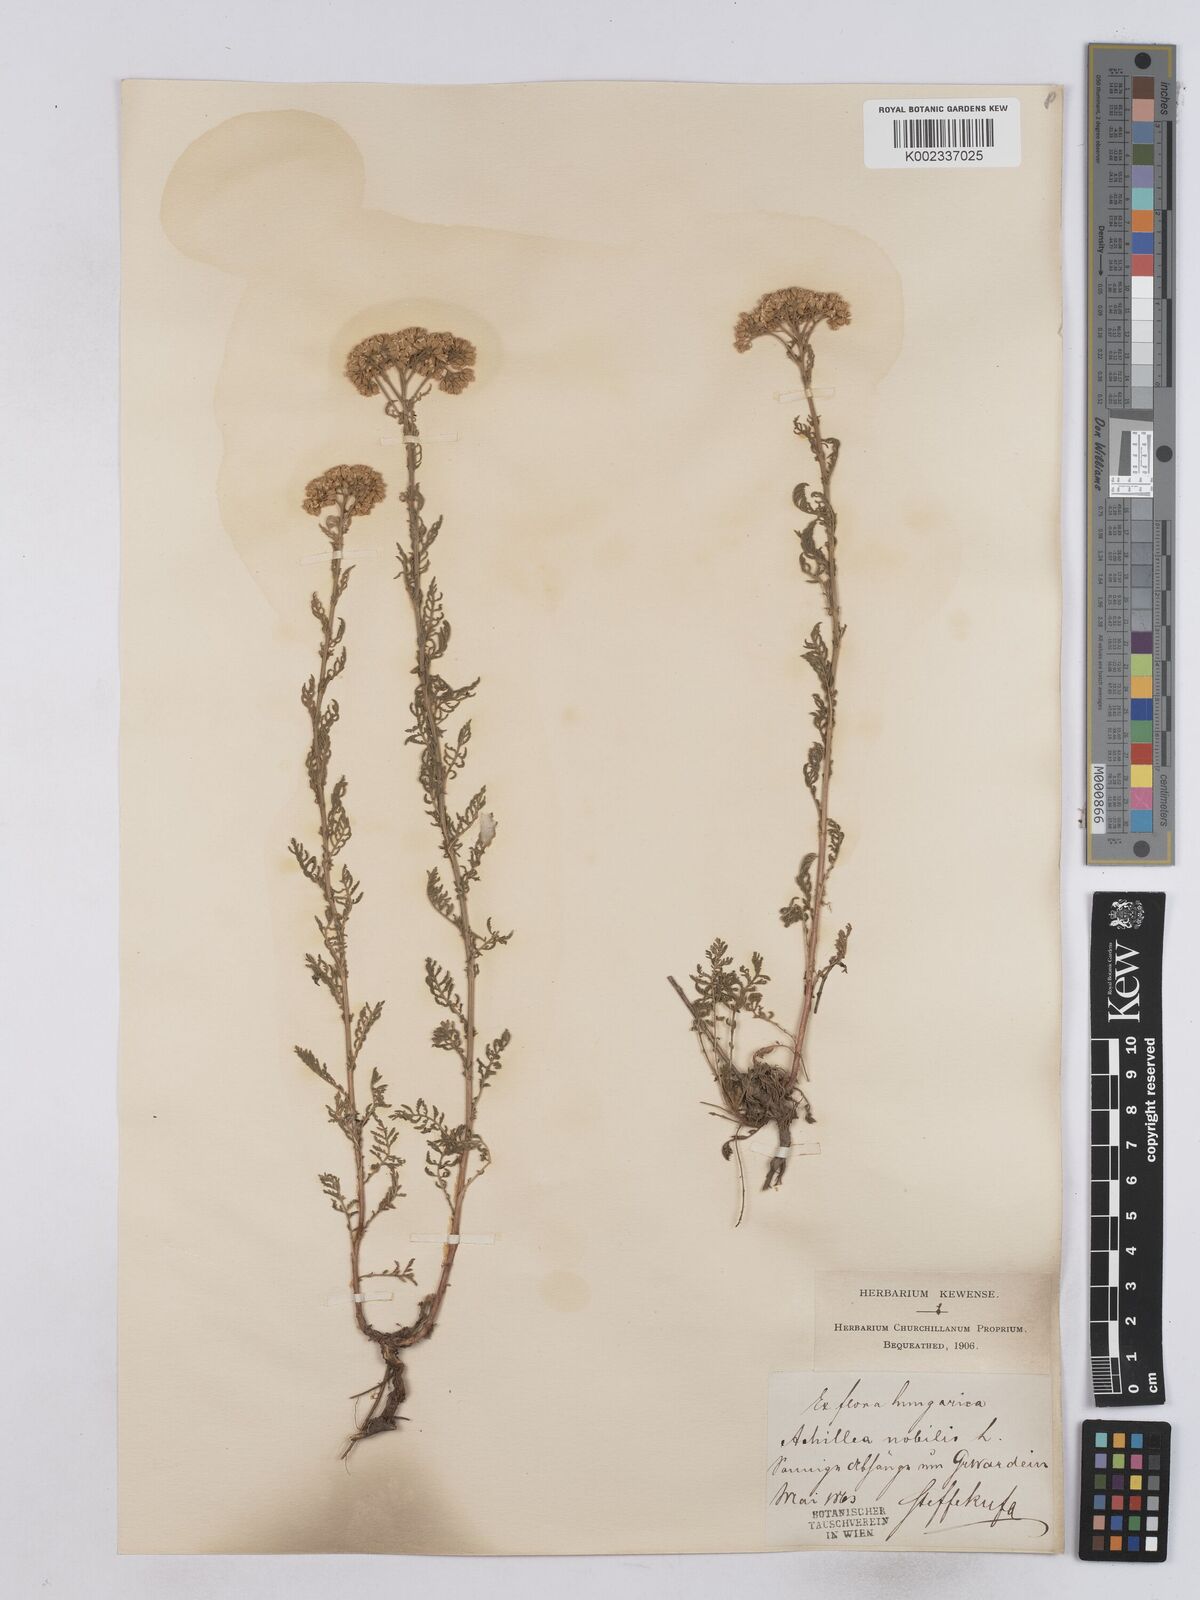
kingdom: Plantae
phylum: Tracheophyta
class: Magnoliopsida
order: Asterales
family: Asteraceae
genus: Achillea
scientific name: Achillea nobilis
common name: Noble yarrow
